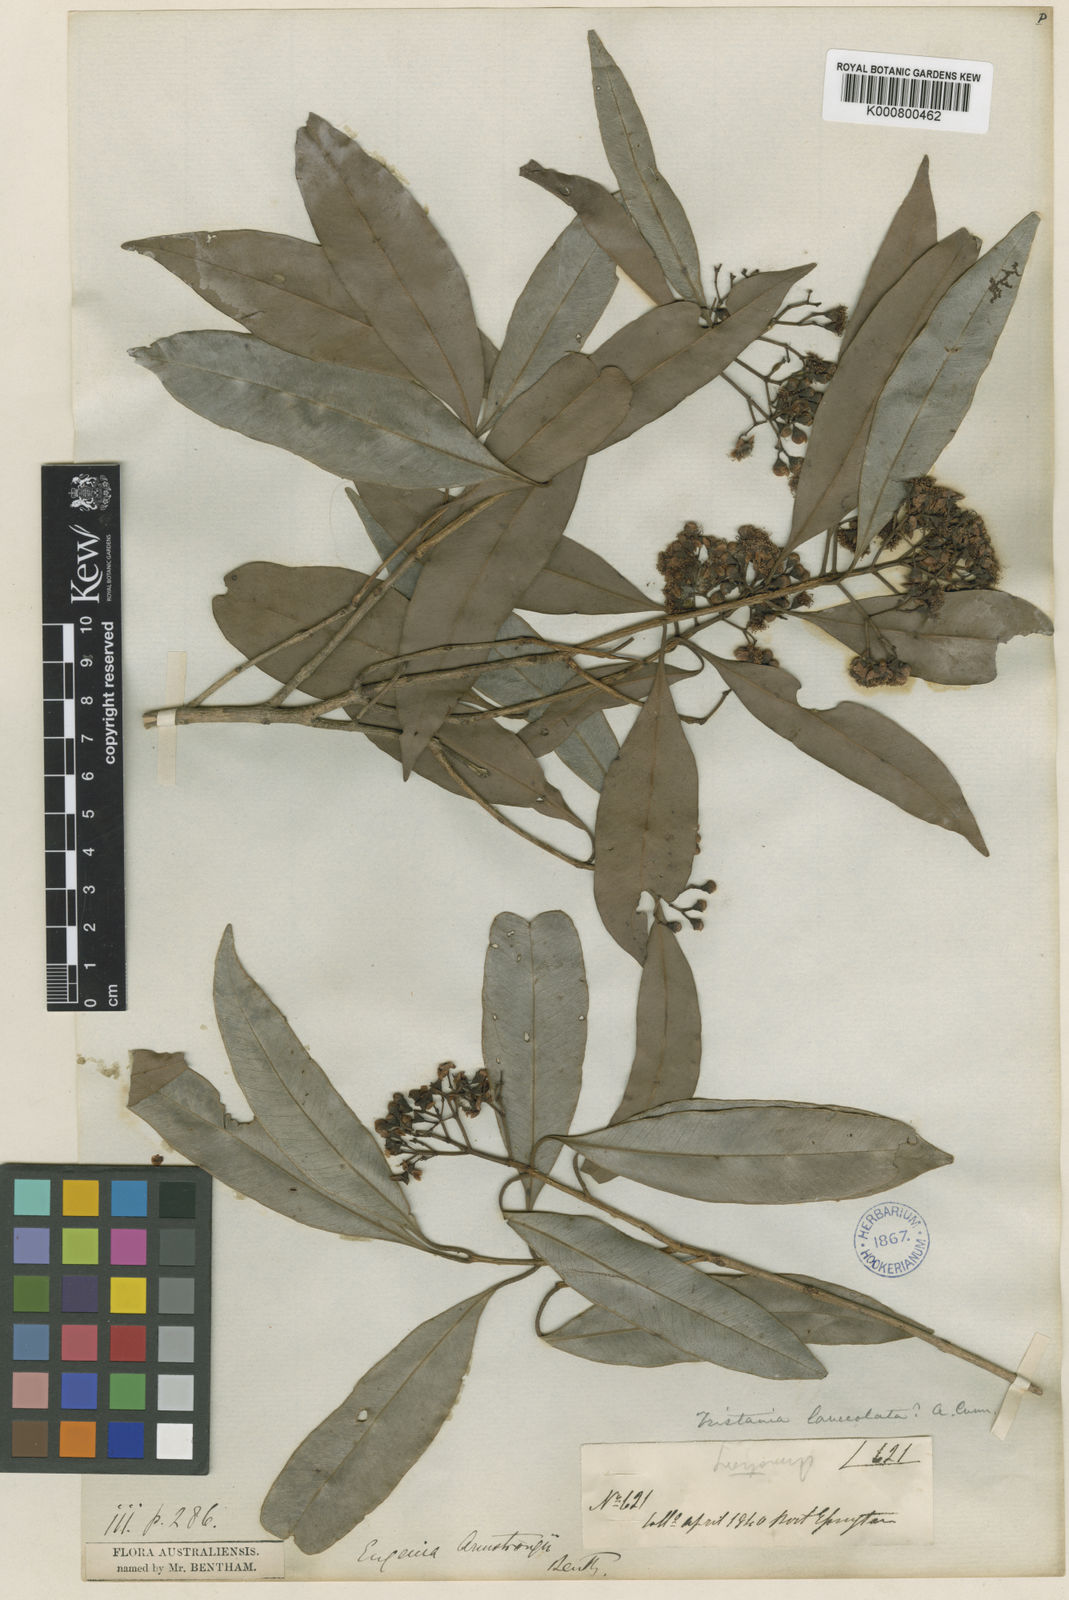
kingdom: Plantae
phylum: Tracheophyta
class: Magnoliopsida
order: Myrtales
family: Myrtaceae
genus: Syzygium
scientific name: Syzygium armstrongii
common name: Small white bush apple
